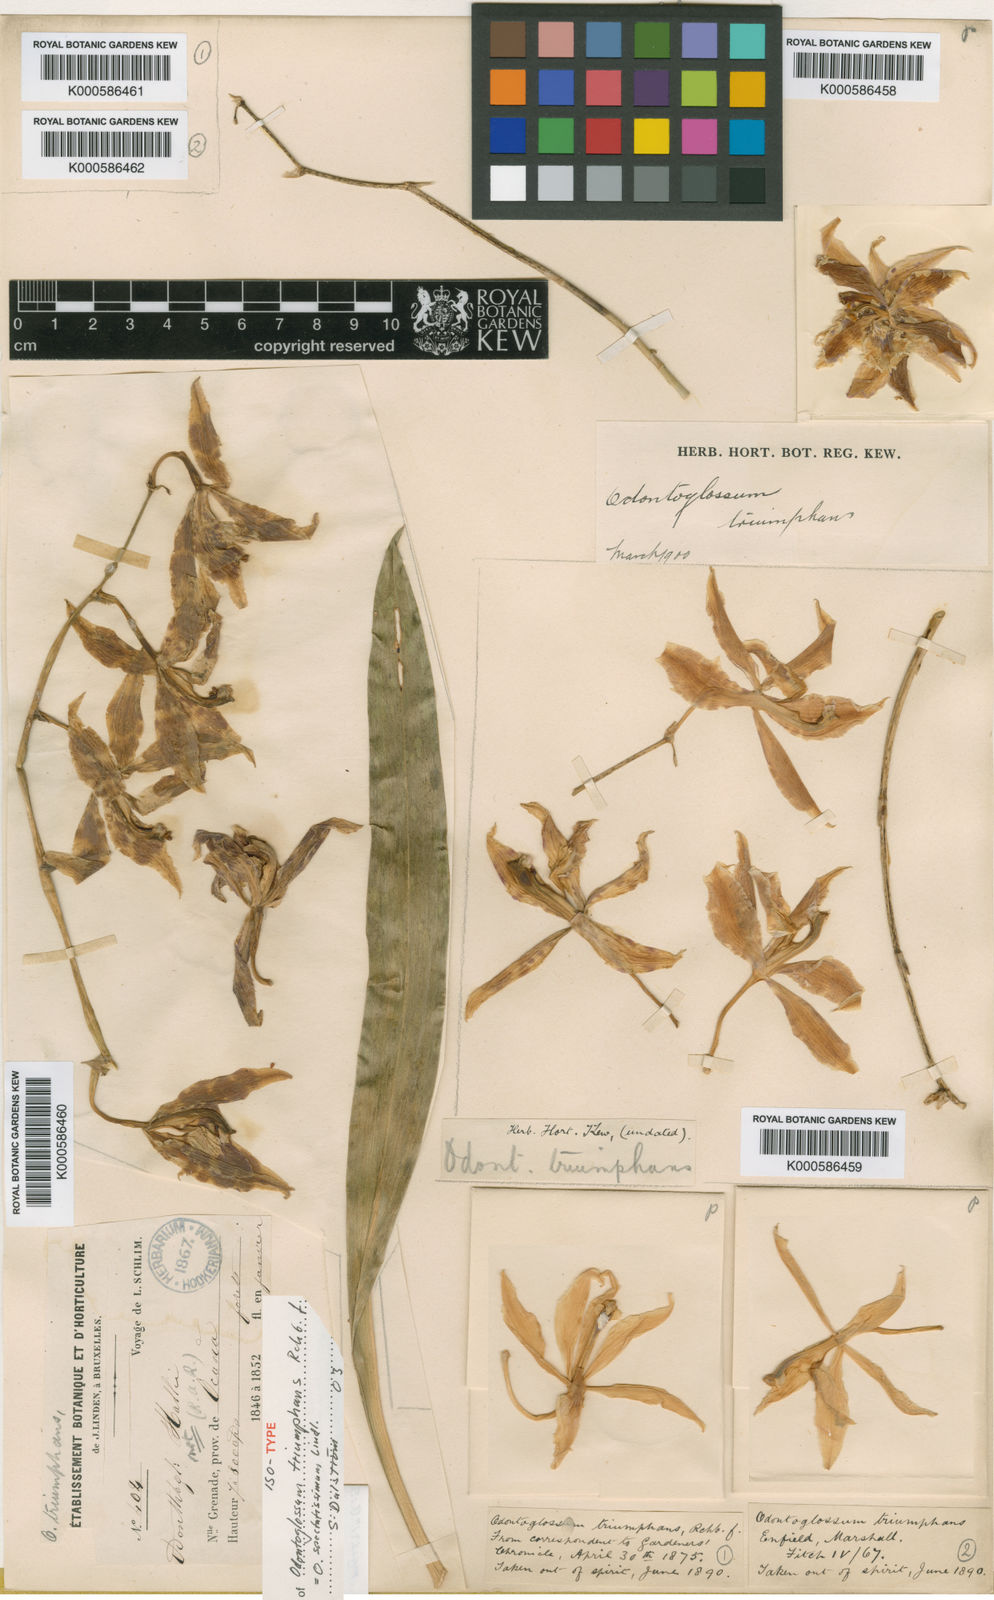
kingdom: Plantae
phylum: Tracheophyta
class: Liliopsida
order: Asparagales
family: Orchidaceae
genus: Oncidium
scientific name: Oncidium spectatissimum
